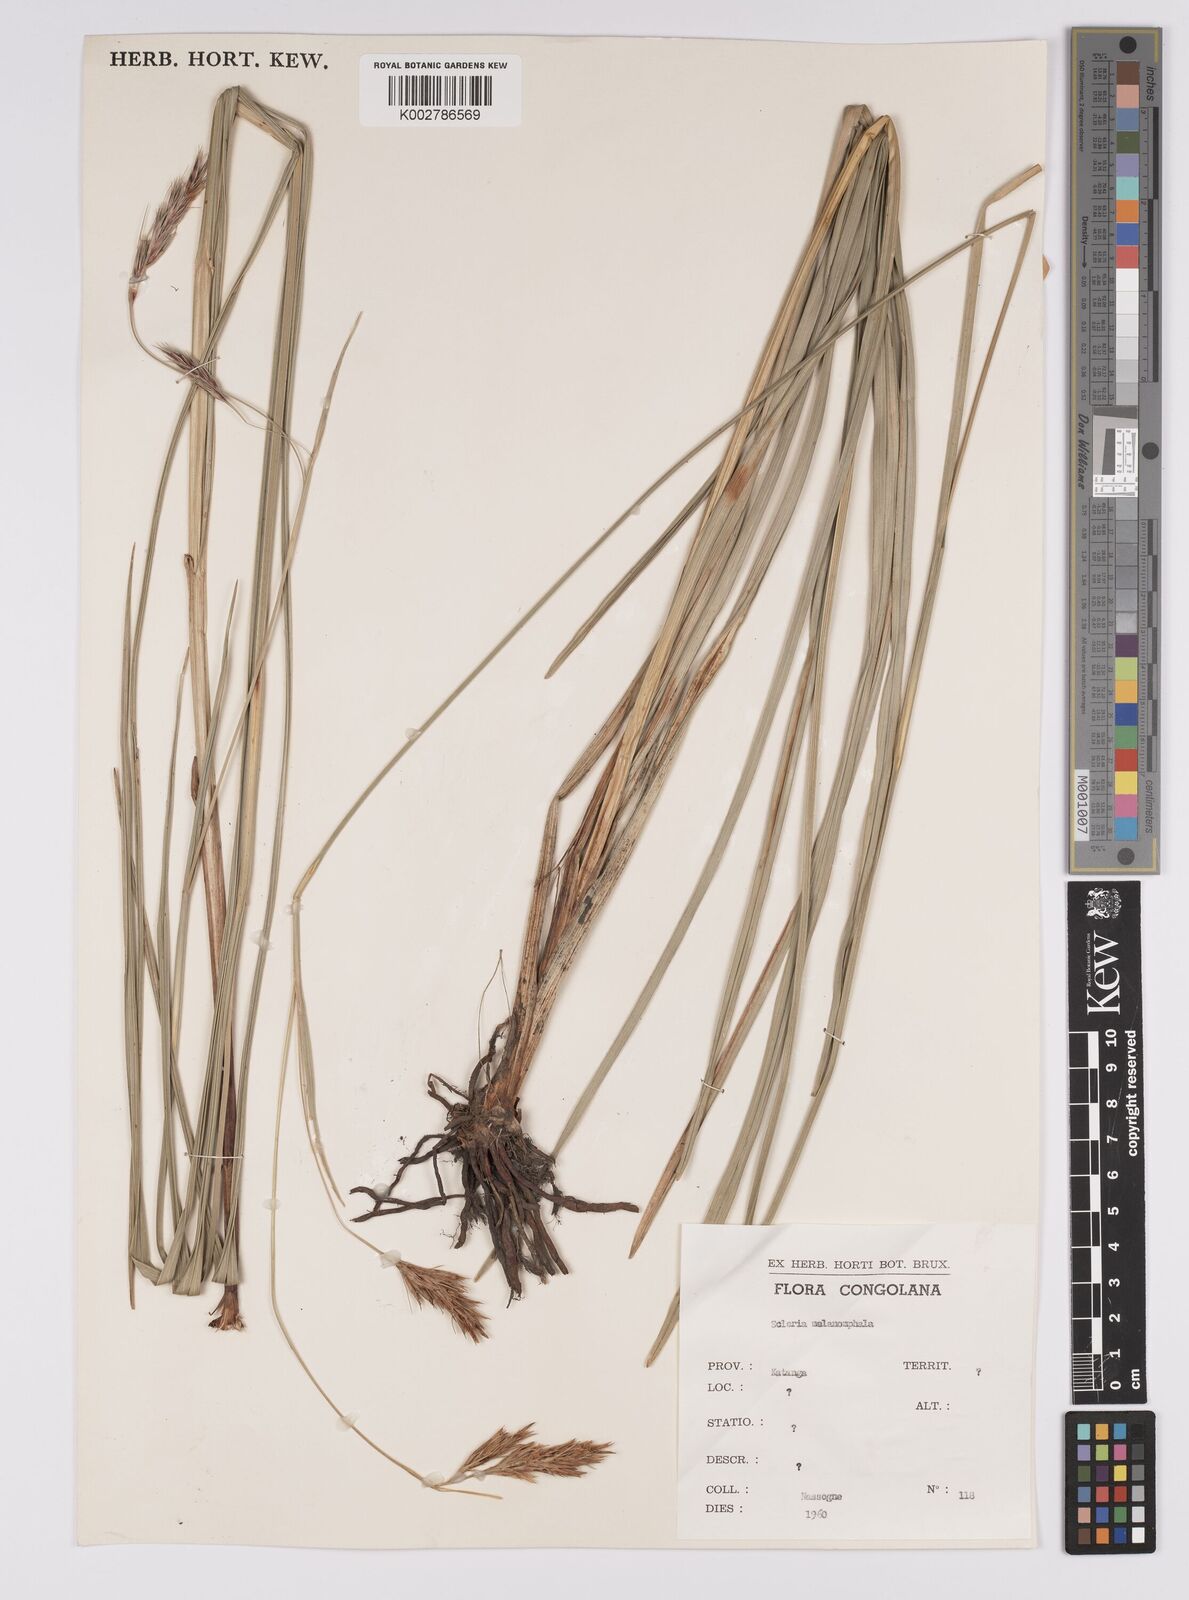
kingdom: Plantae
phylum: Tracheophyta
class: Liliopsida
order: Poales
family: Cyperaceae
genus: Scleria
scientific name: Scleria melanomphala
